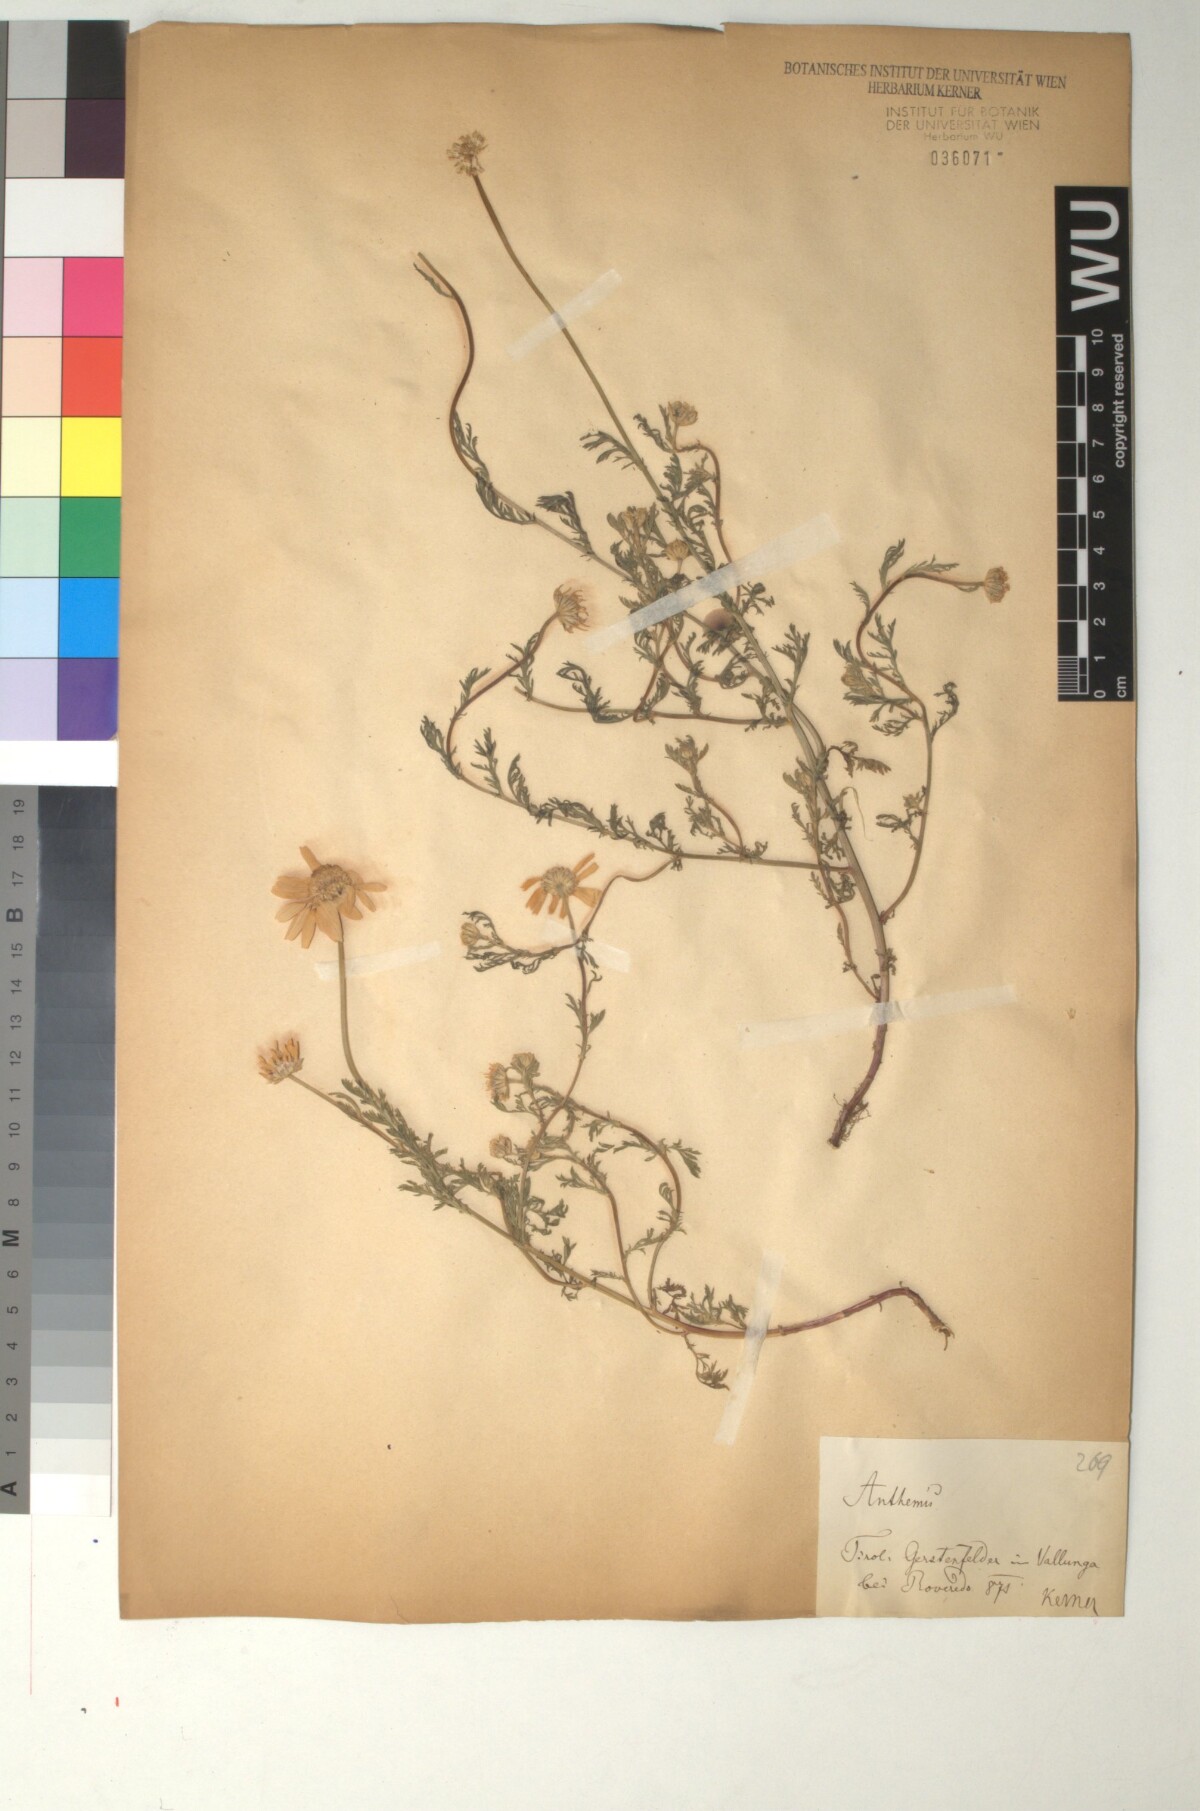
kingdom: Plantae
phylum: Tracheophyta
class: Magnoliopsida
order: Asterales
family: Asteraceae
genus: Anthemis
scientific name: Anthemis cotula
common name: Stinking chamomile
